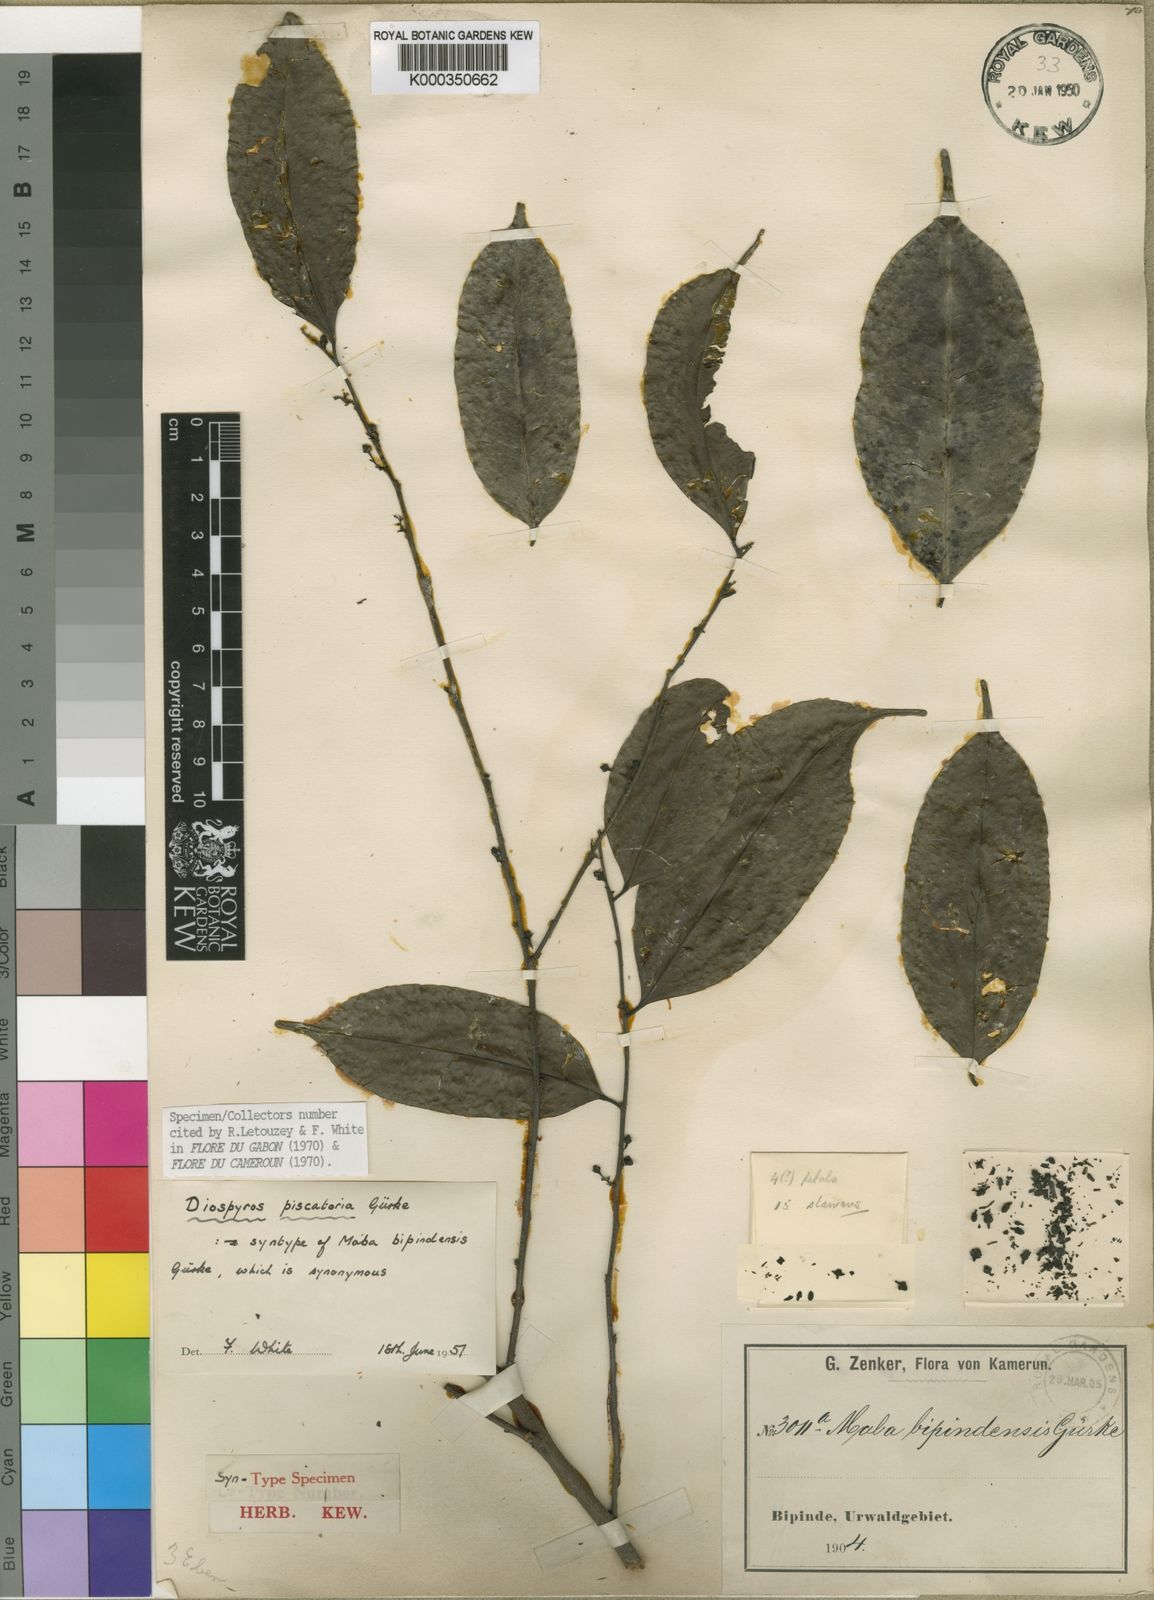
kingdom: Plantae
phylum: Tracheophyta
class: Magnoliopsida
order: Ericales
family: Ebenaceae
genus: Diospyros
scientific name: Diospyros
